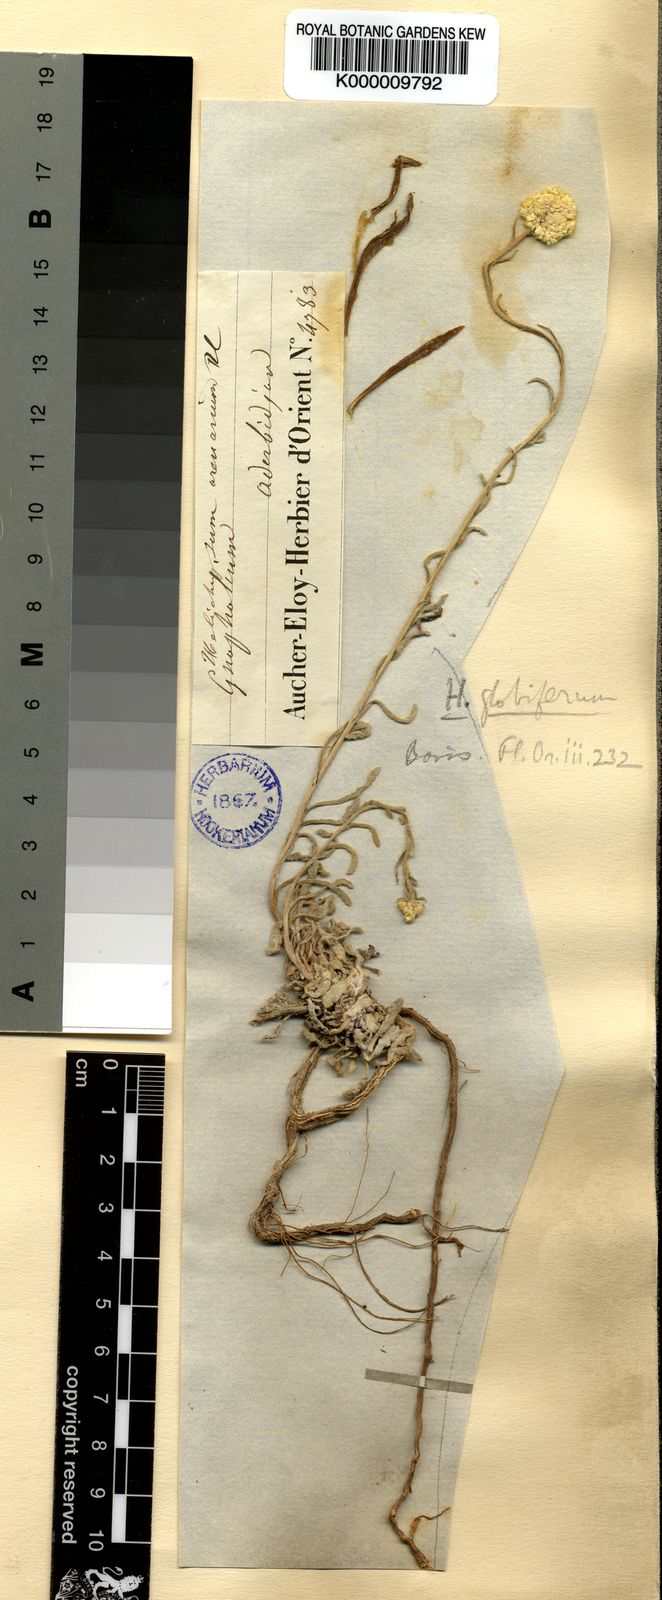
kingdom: Plantae
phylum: Tracheophyta
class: Magnoliopsida
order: Asterales
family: Asteraceae
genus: Helichrysum
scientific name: Helichrysum globiferum
